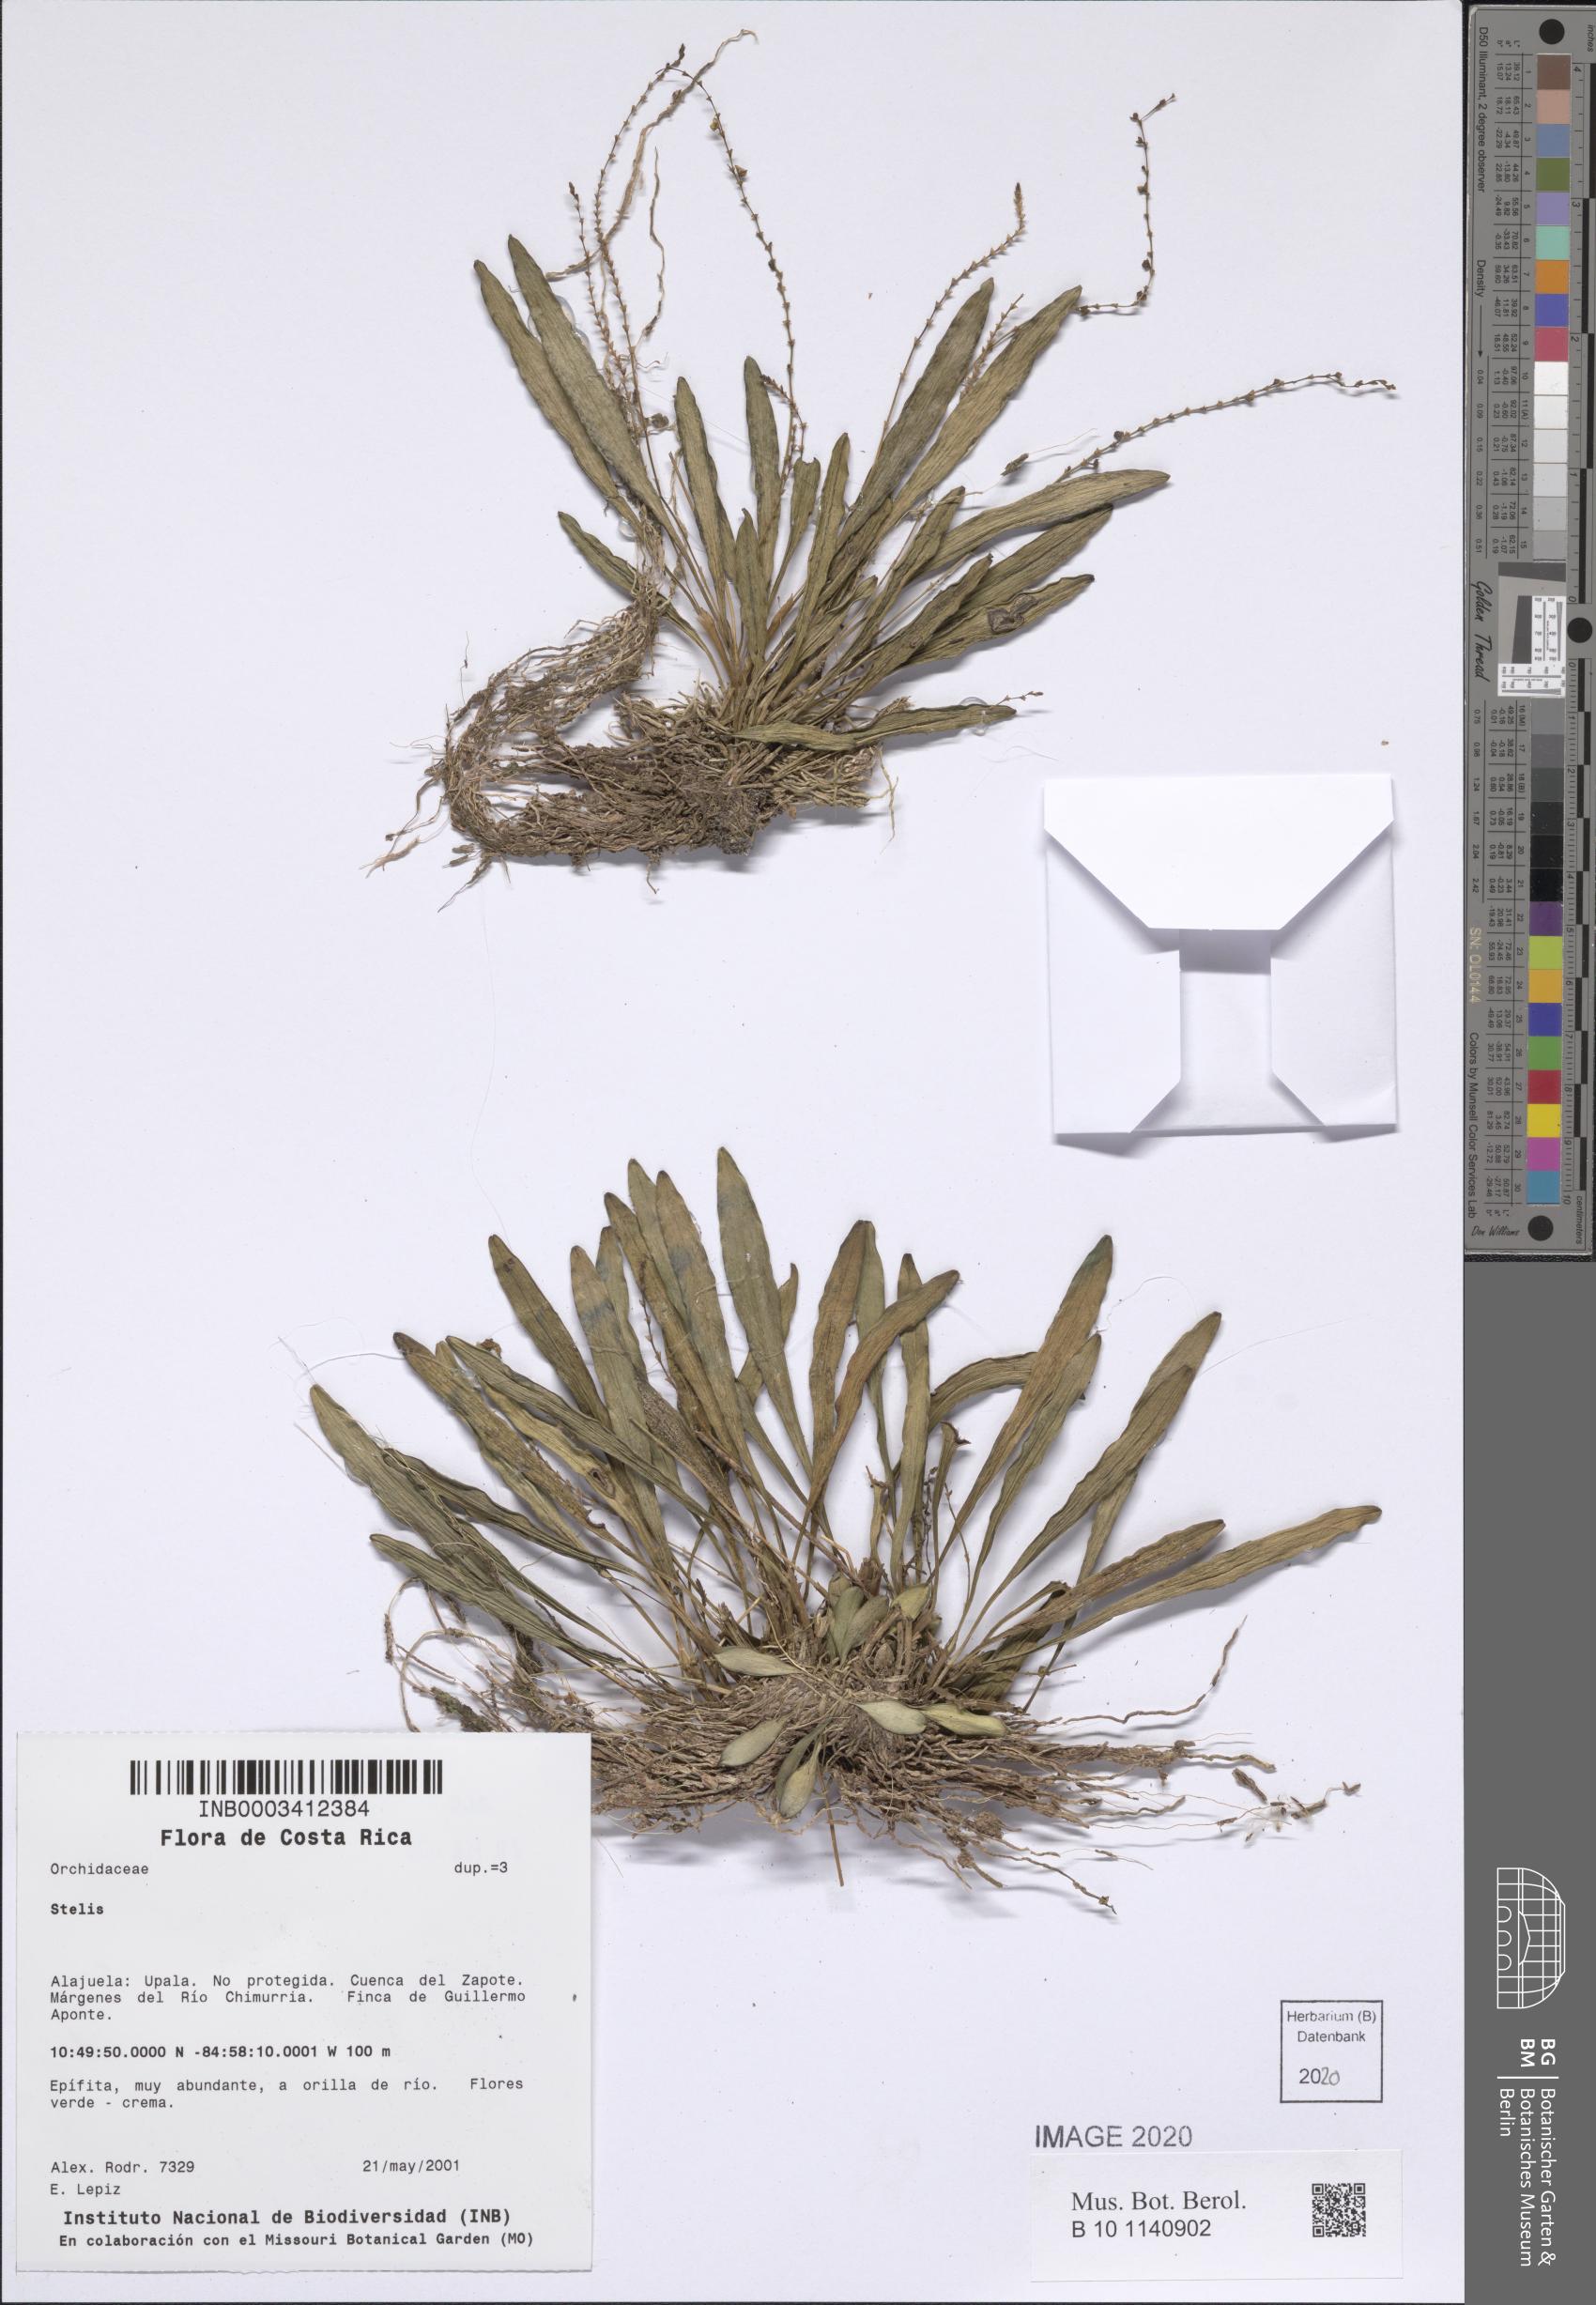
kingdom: Plantae
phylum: Tracheophyta
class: Liliopsida
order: Asparagales
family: Orchidaceae
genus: Stelis
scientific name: Stelis
